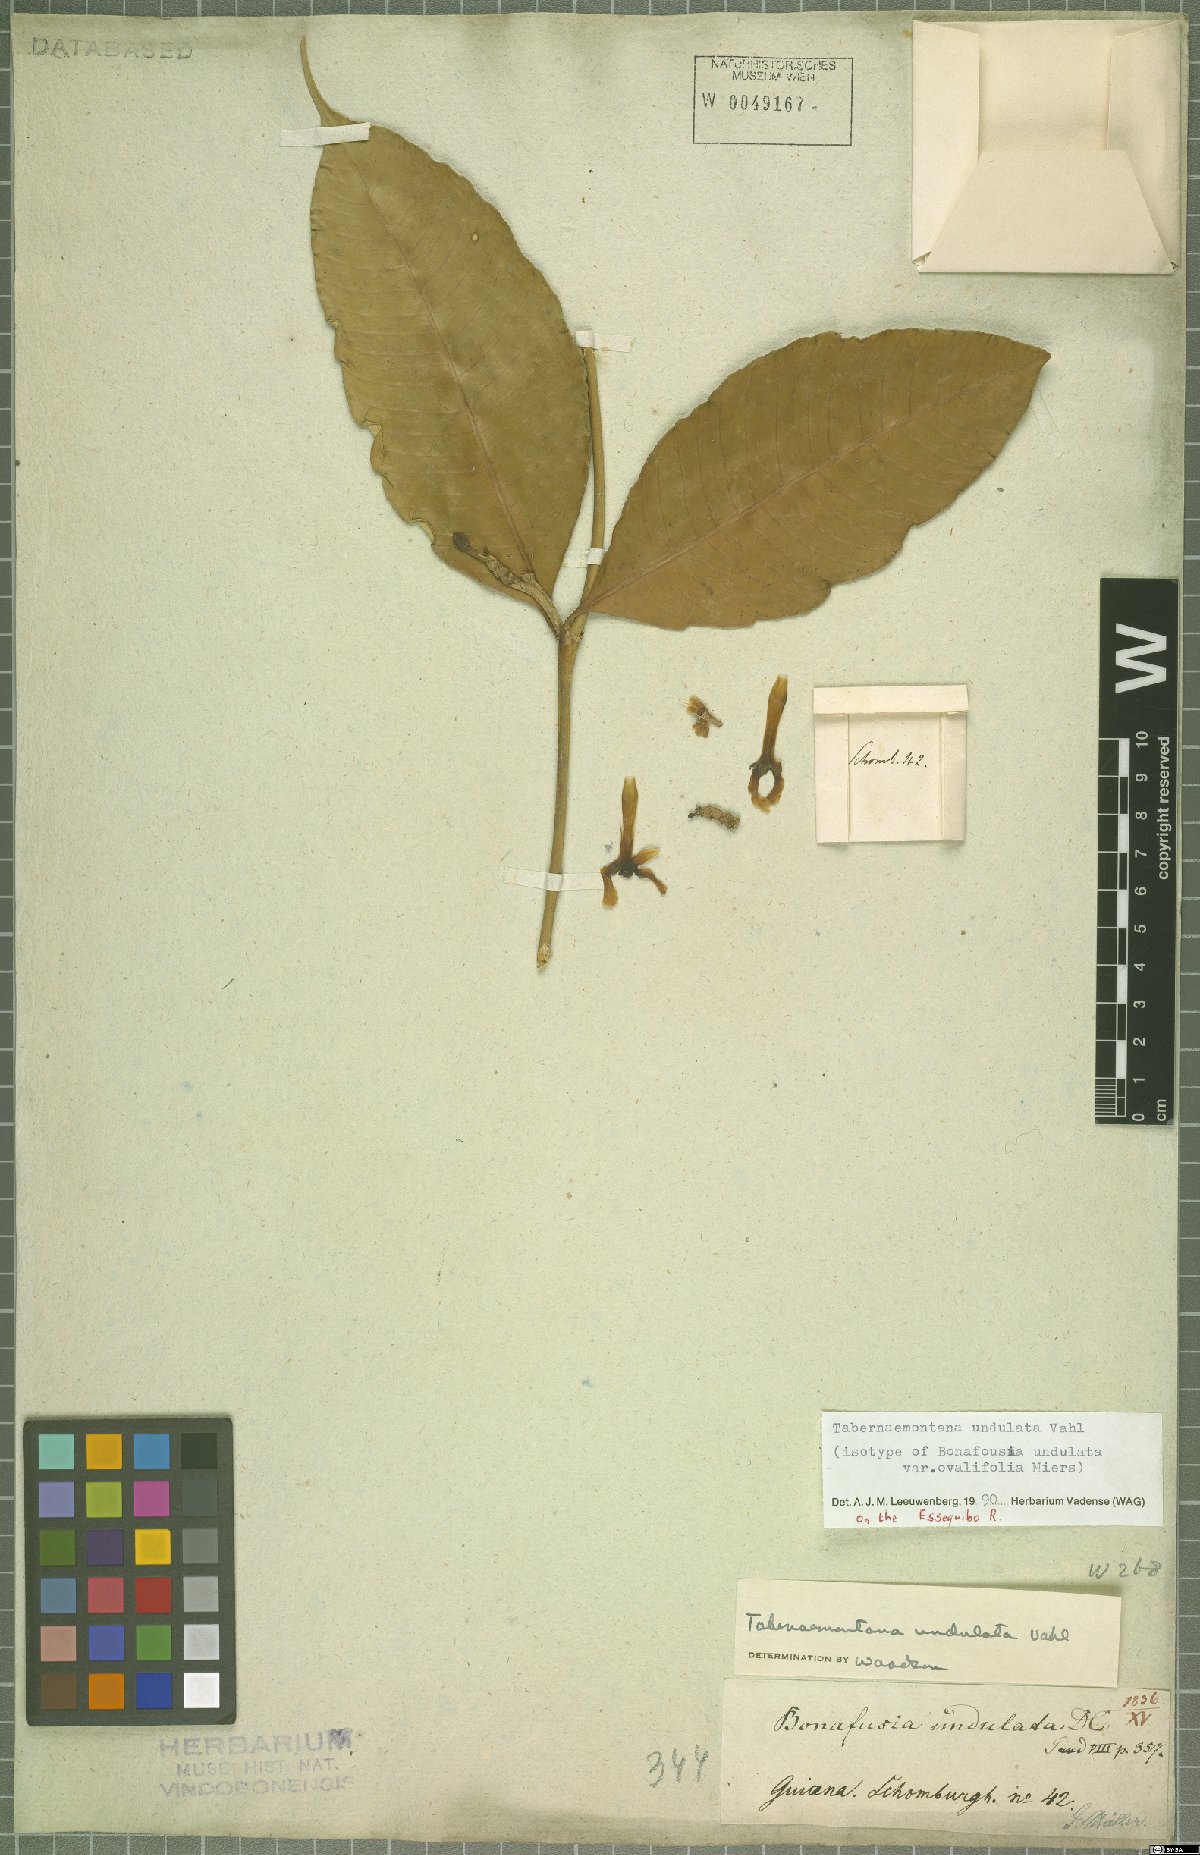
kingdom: Plantae
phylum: Tracheophyta
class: Magnoliopsida
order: Gentianales
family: Apocynaceae
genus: Tabernaemontana
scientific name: Tabernaemontana undulata
